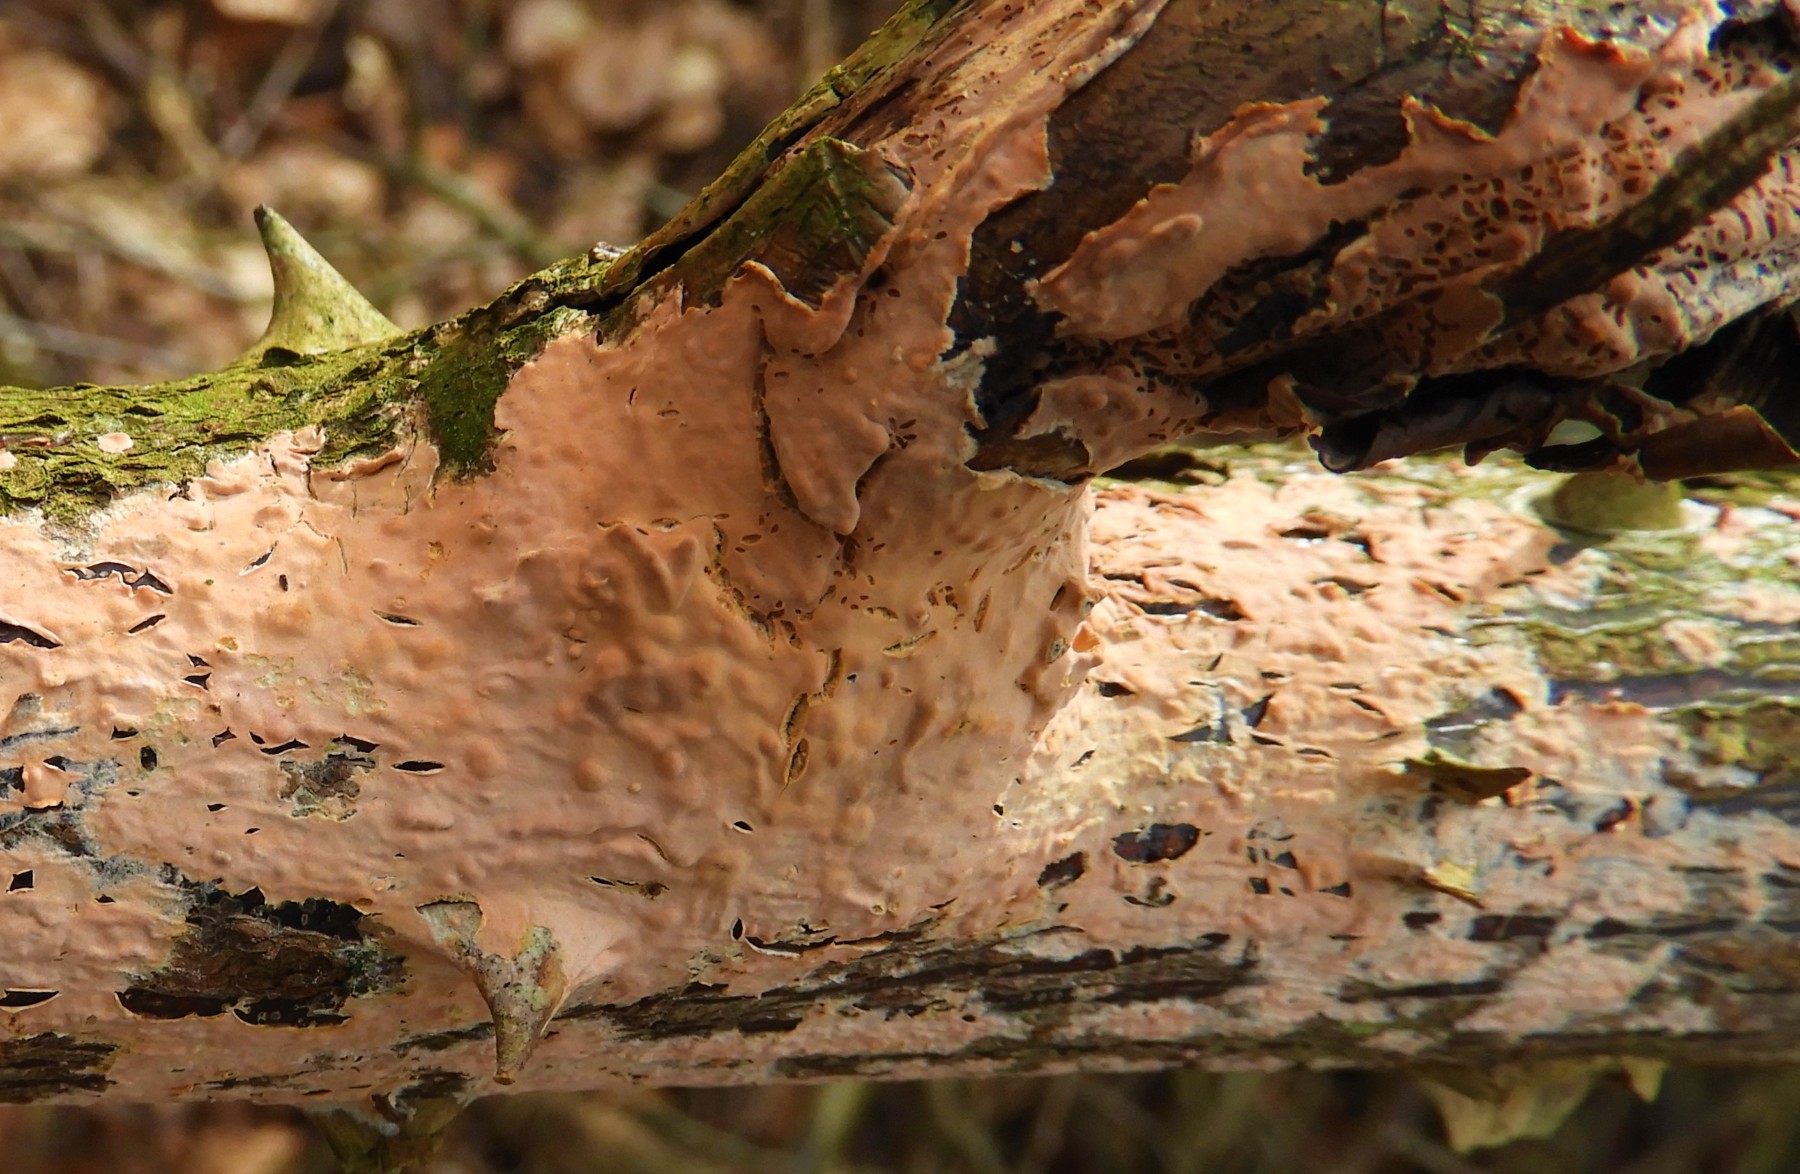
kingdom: Fungi
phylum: Basidiomycota
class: Agaricomycetes
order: Russulales
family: Peniophoraceae
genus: Peniophora
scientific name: Peniophora incarnata
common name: laksefarvet voksskind
